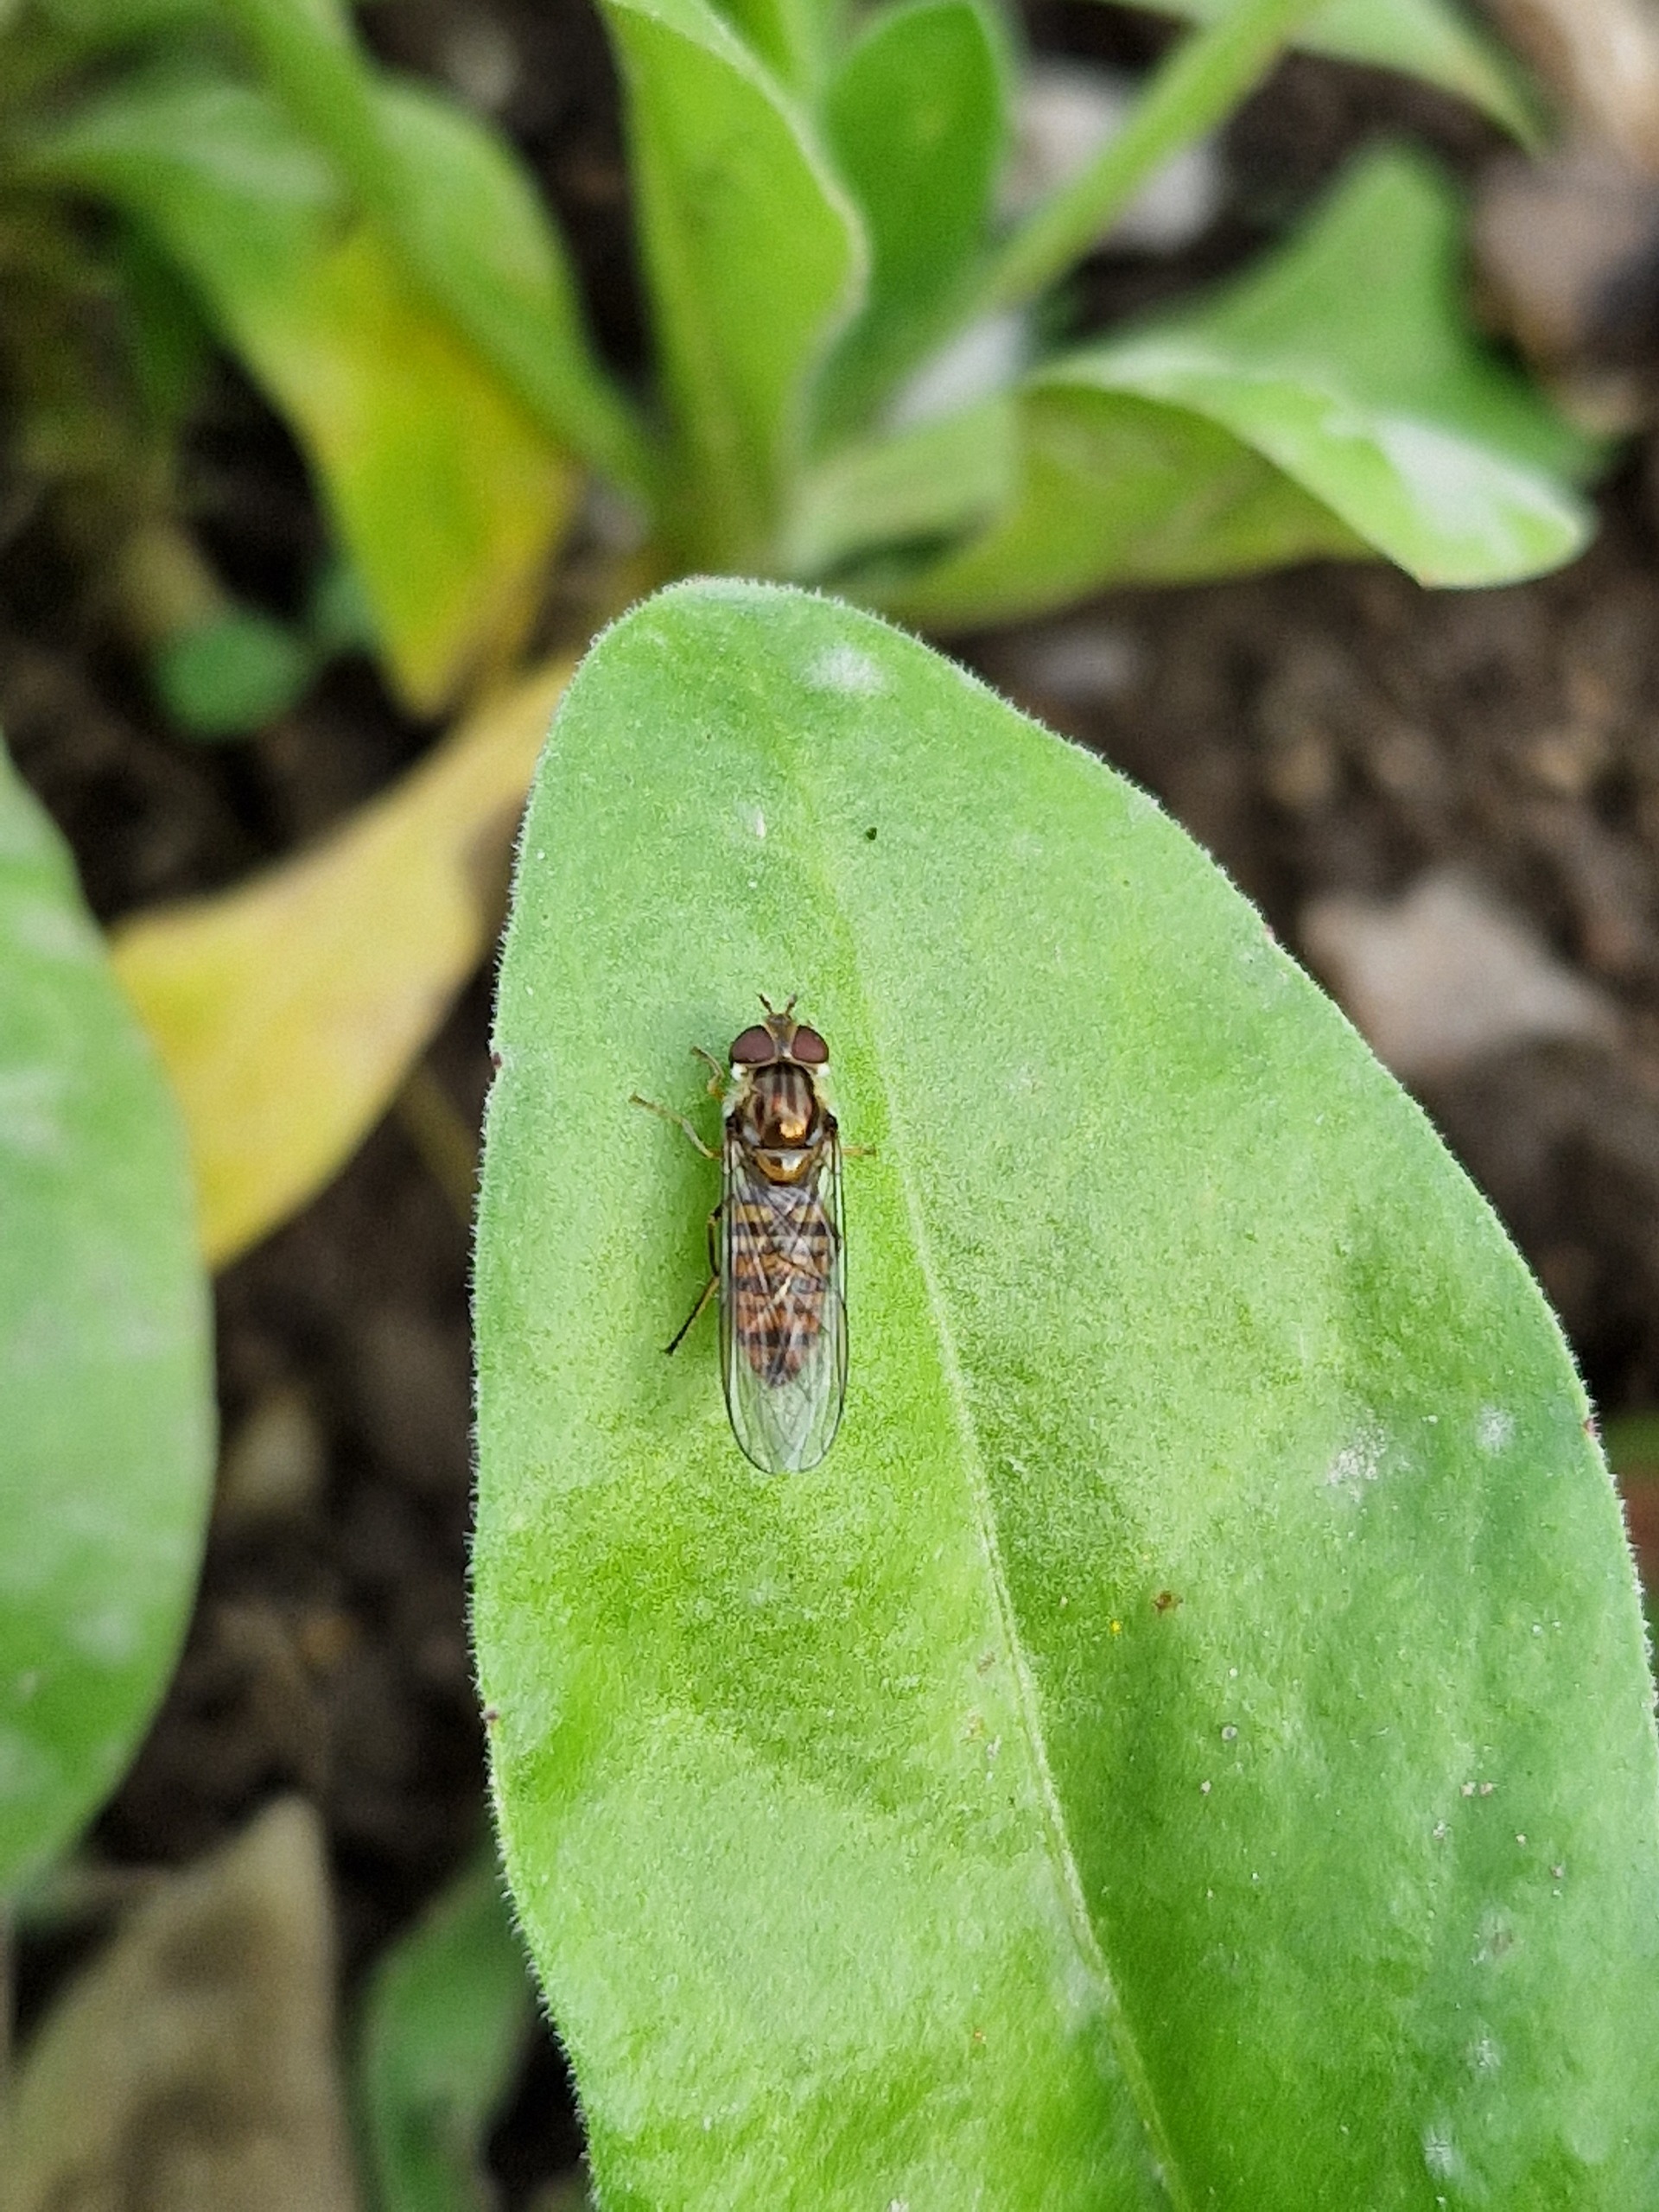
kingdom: Animalia
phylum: Arthropoda
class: Insecta
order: Diptera
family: Syrphidae
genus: Episyrphus
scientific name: Episyrphus balteatus
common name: Dobbeltbåndet svirreflue
